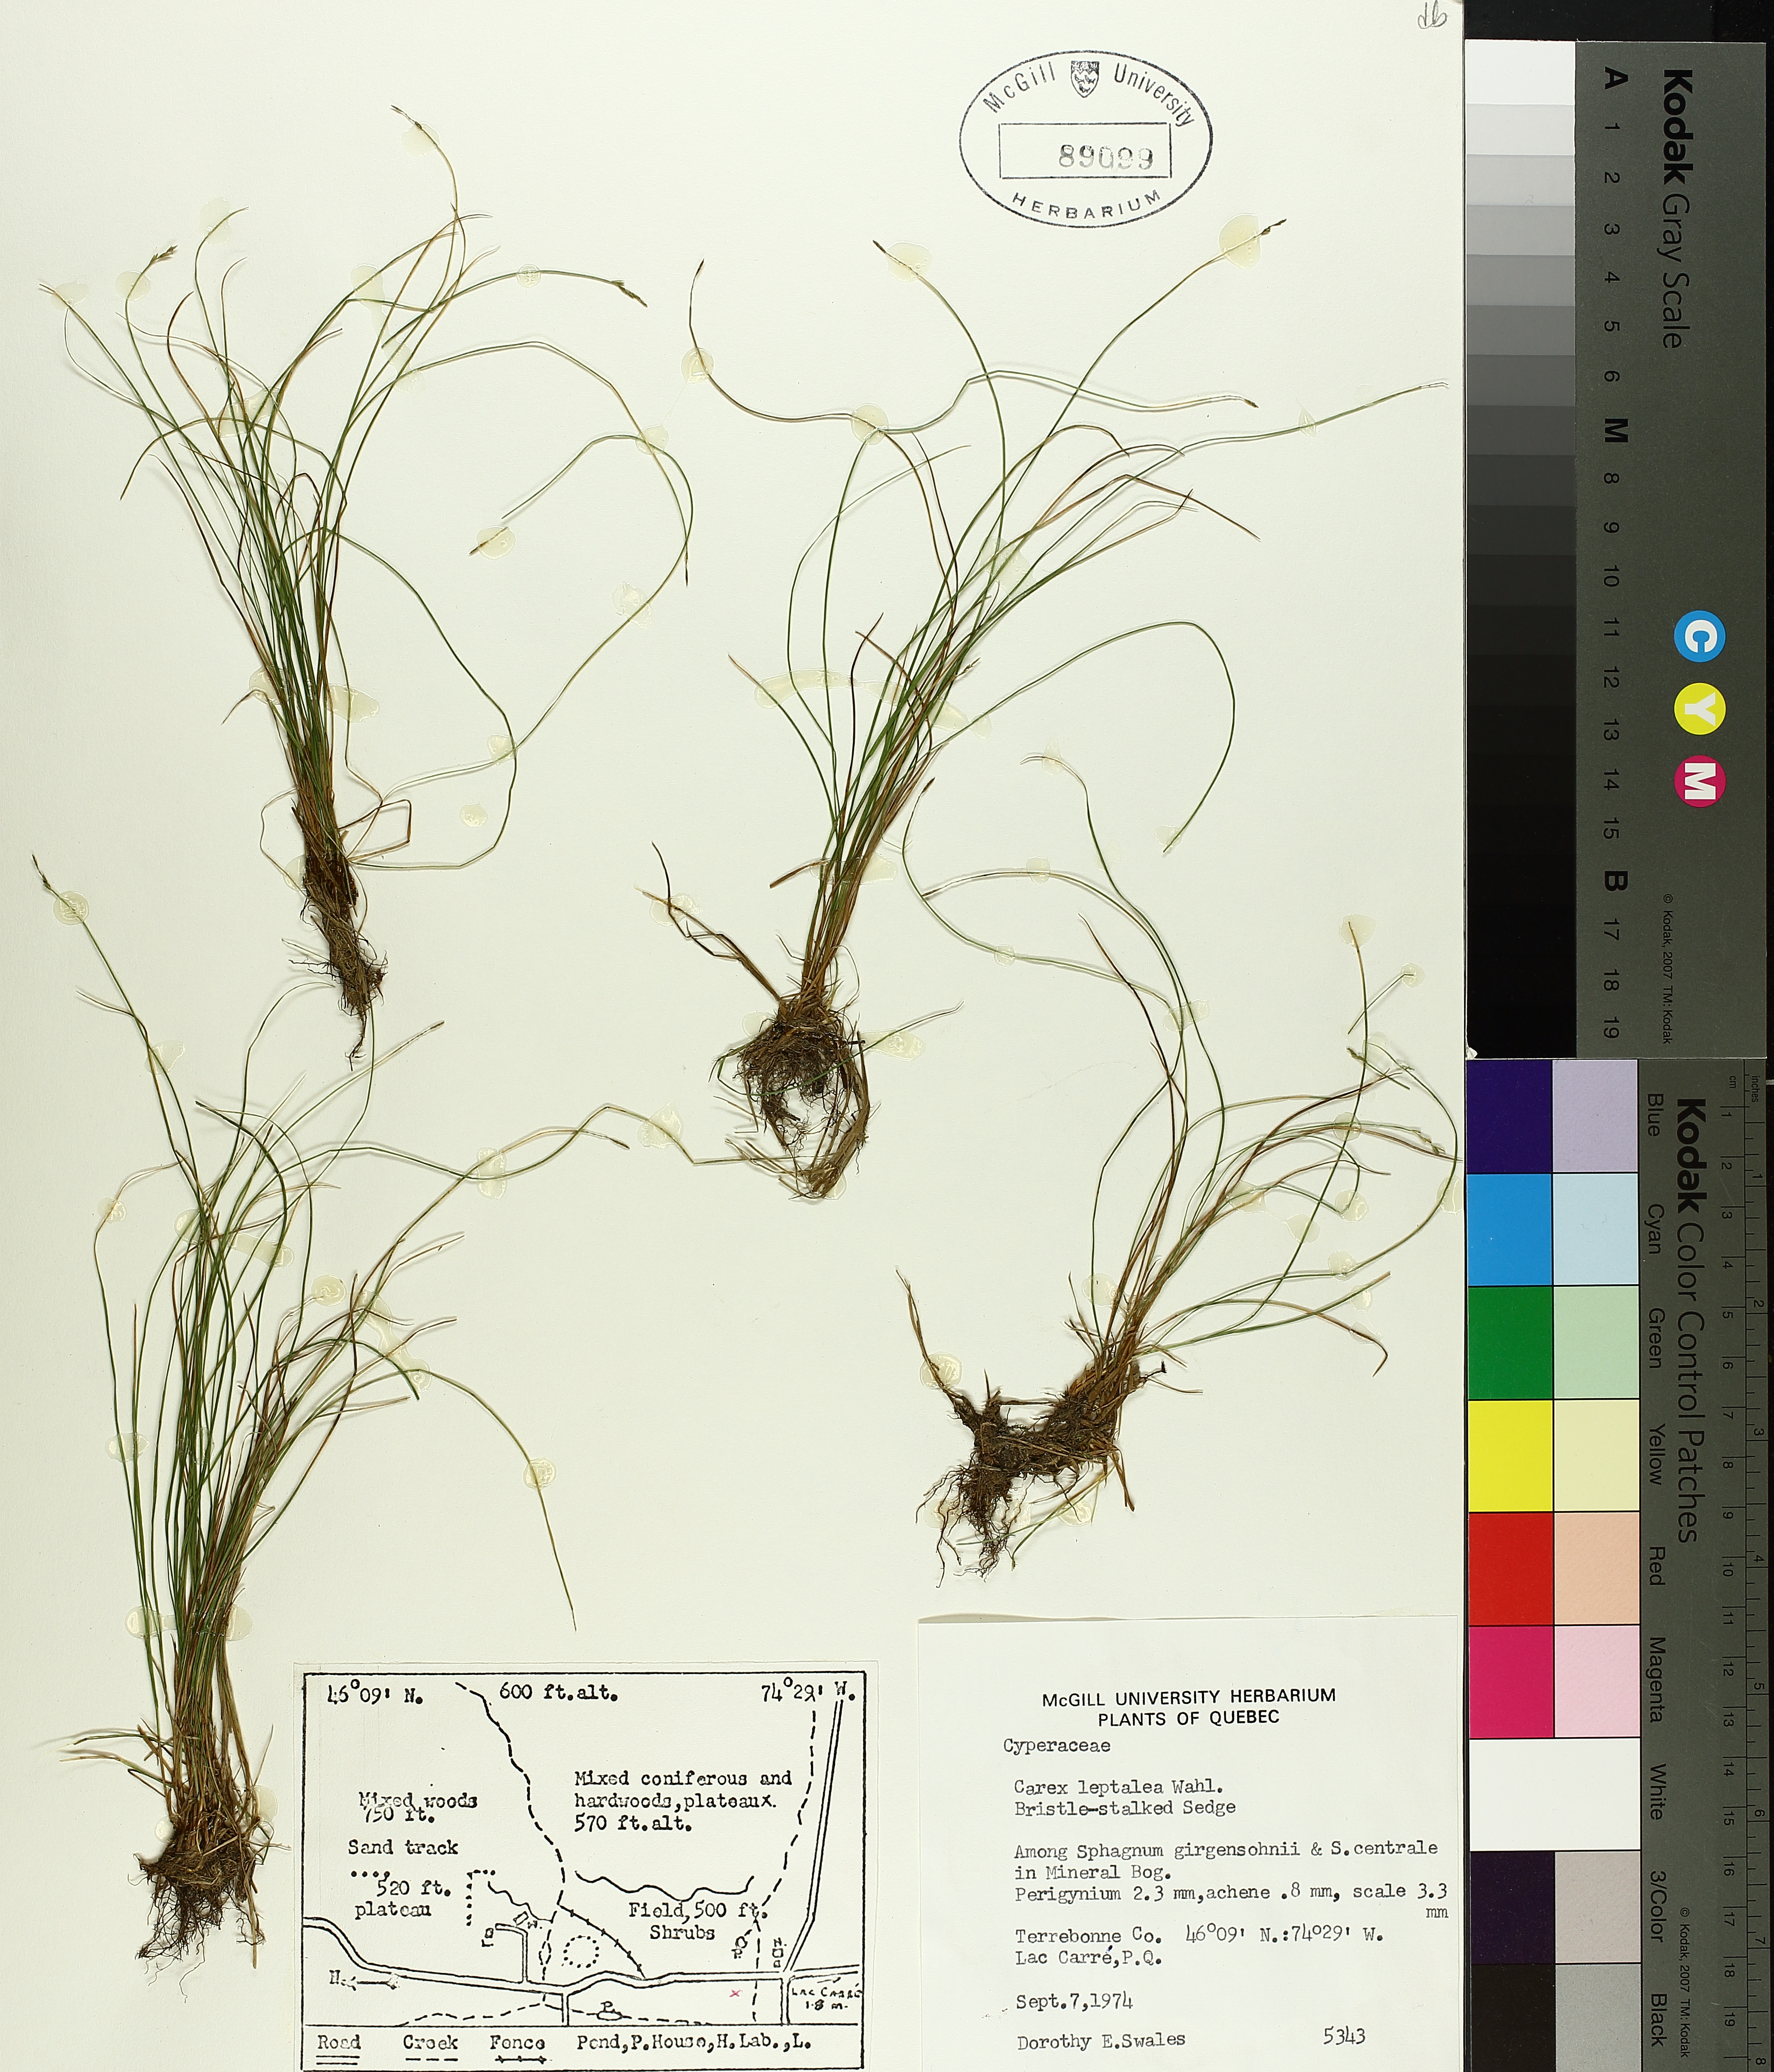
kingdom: Plantae
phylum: Tracheophyta
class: Liliopsida
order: Poales
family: Cyperaceae
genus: Carex
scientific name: Carex leptalea
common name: Bristly-stalked sedge
